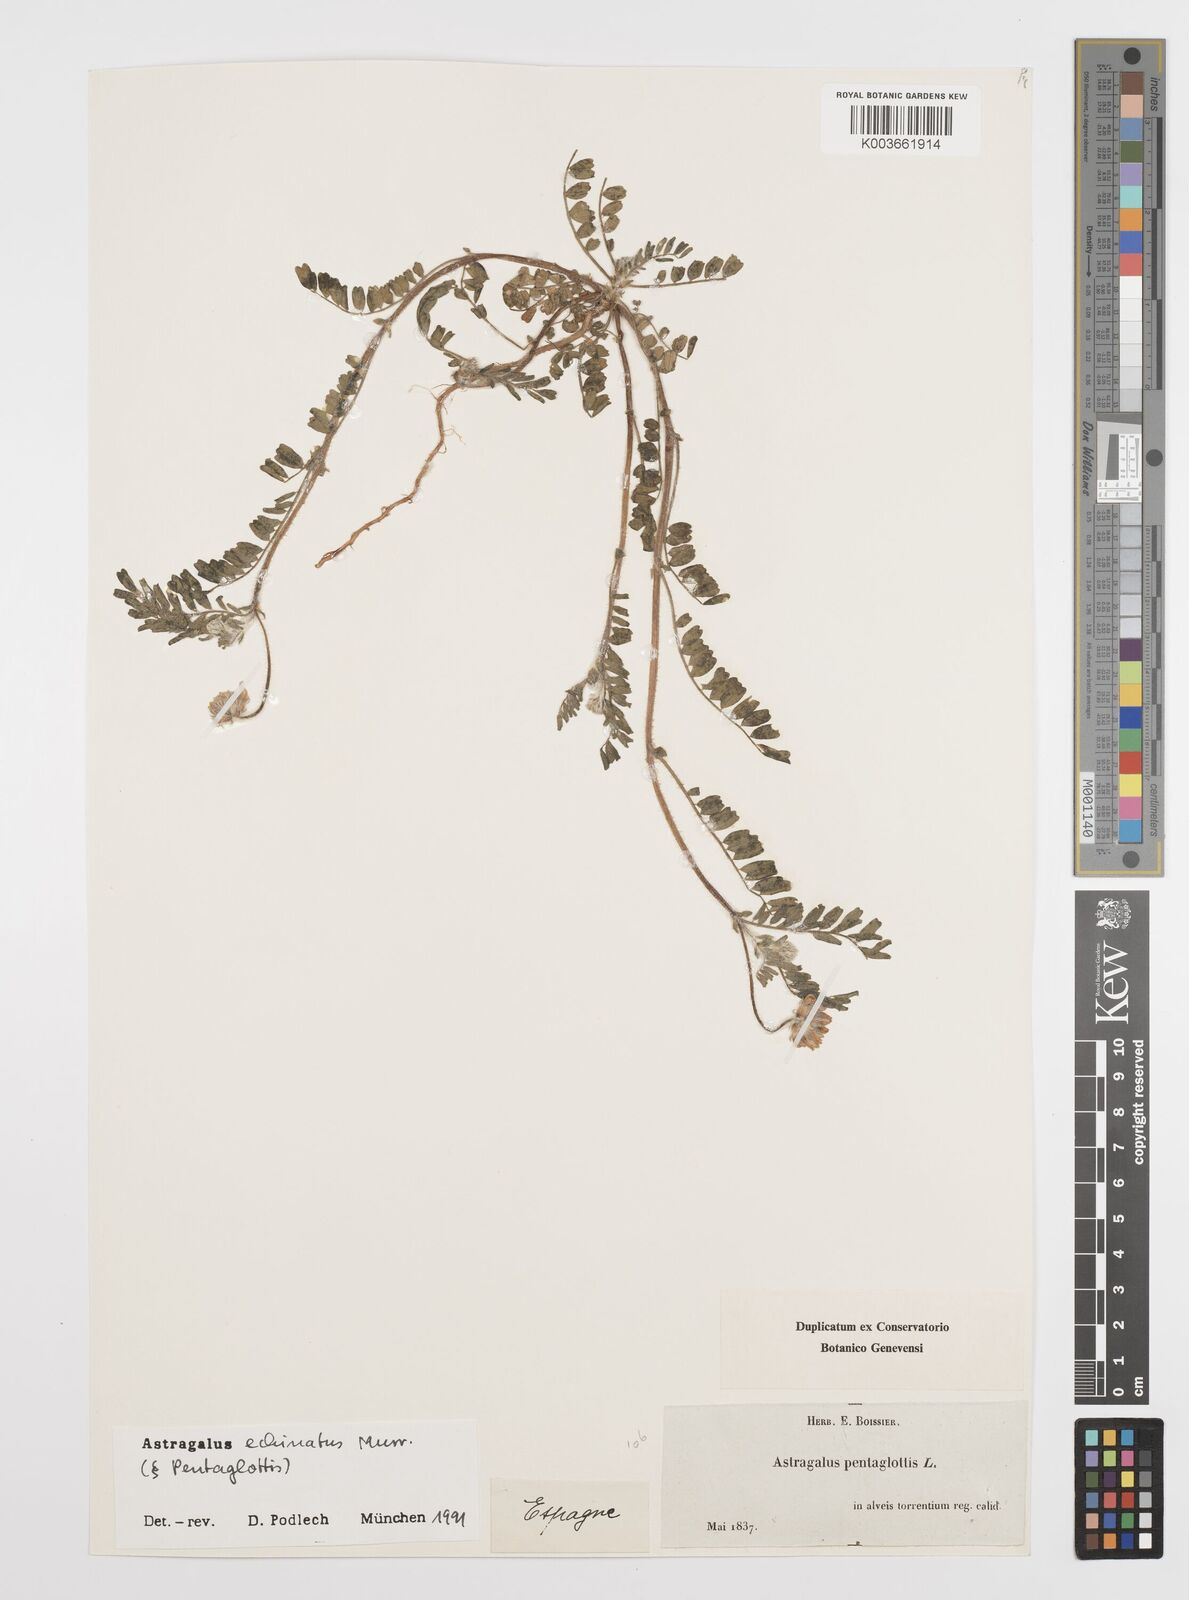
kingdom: Plantae
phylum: Tracheophyta
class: Magnoliopsida
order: Fabales
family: Fabaceae
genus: Astragalus
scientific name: Astragalus echinatus
